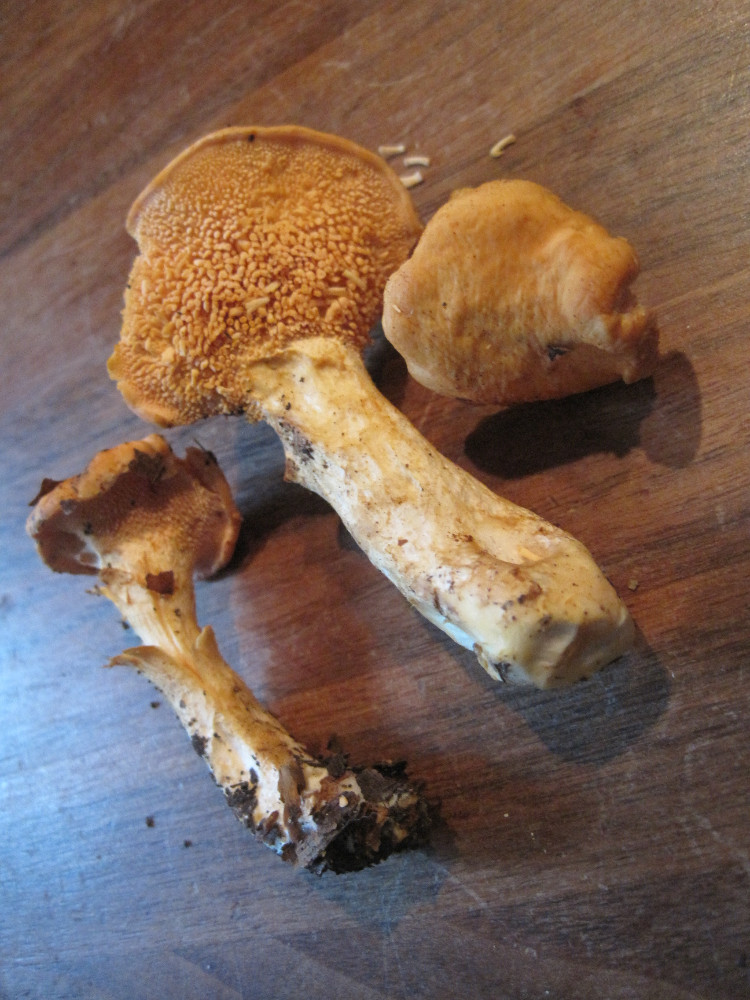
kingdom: Fungi
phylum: Basidiomycota
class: Agaricomycetes
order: Cantharellales
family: Hydnaceae
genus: Hydnum
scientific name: Hydnum rufescens
